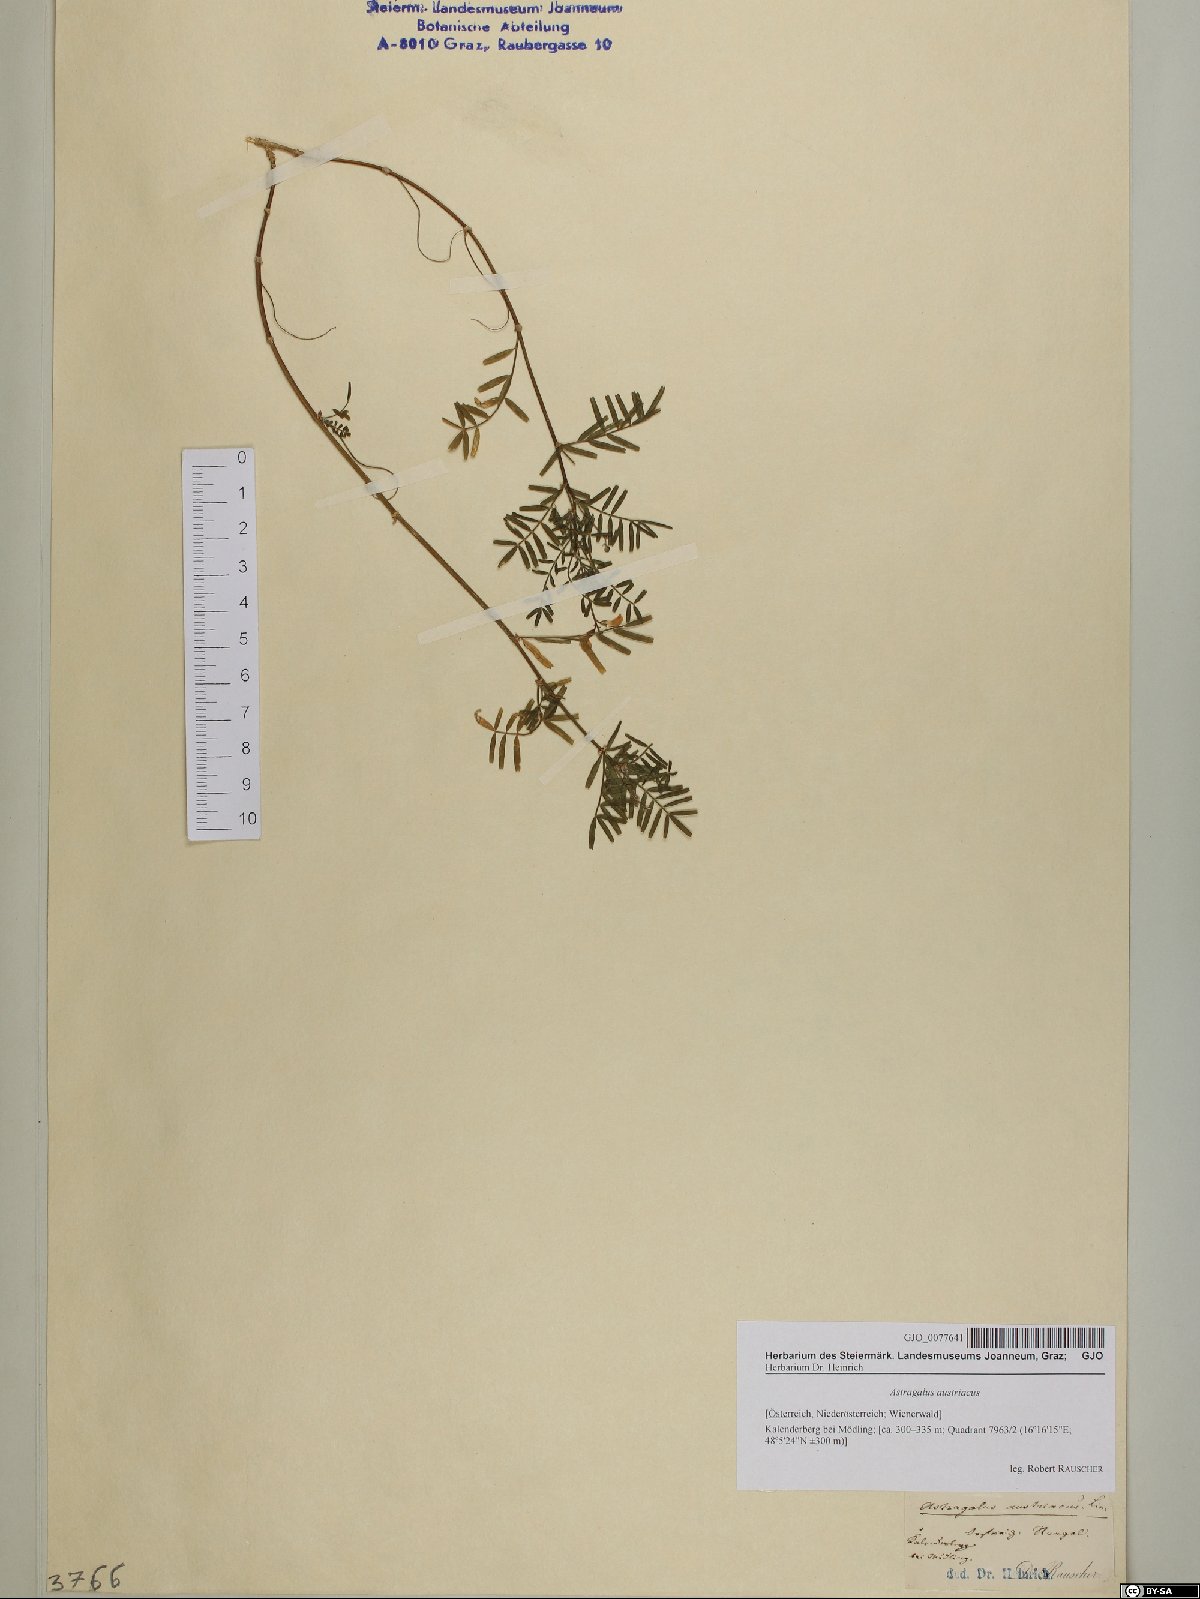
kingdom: Plantae
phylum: Tracheophyta
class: Magnoliopsida
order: Fabales
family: Fabaceae
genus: Astragalus
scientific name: Astragalus austriacus
